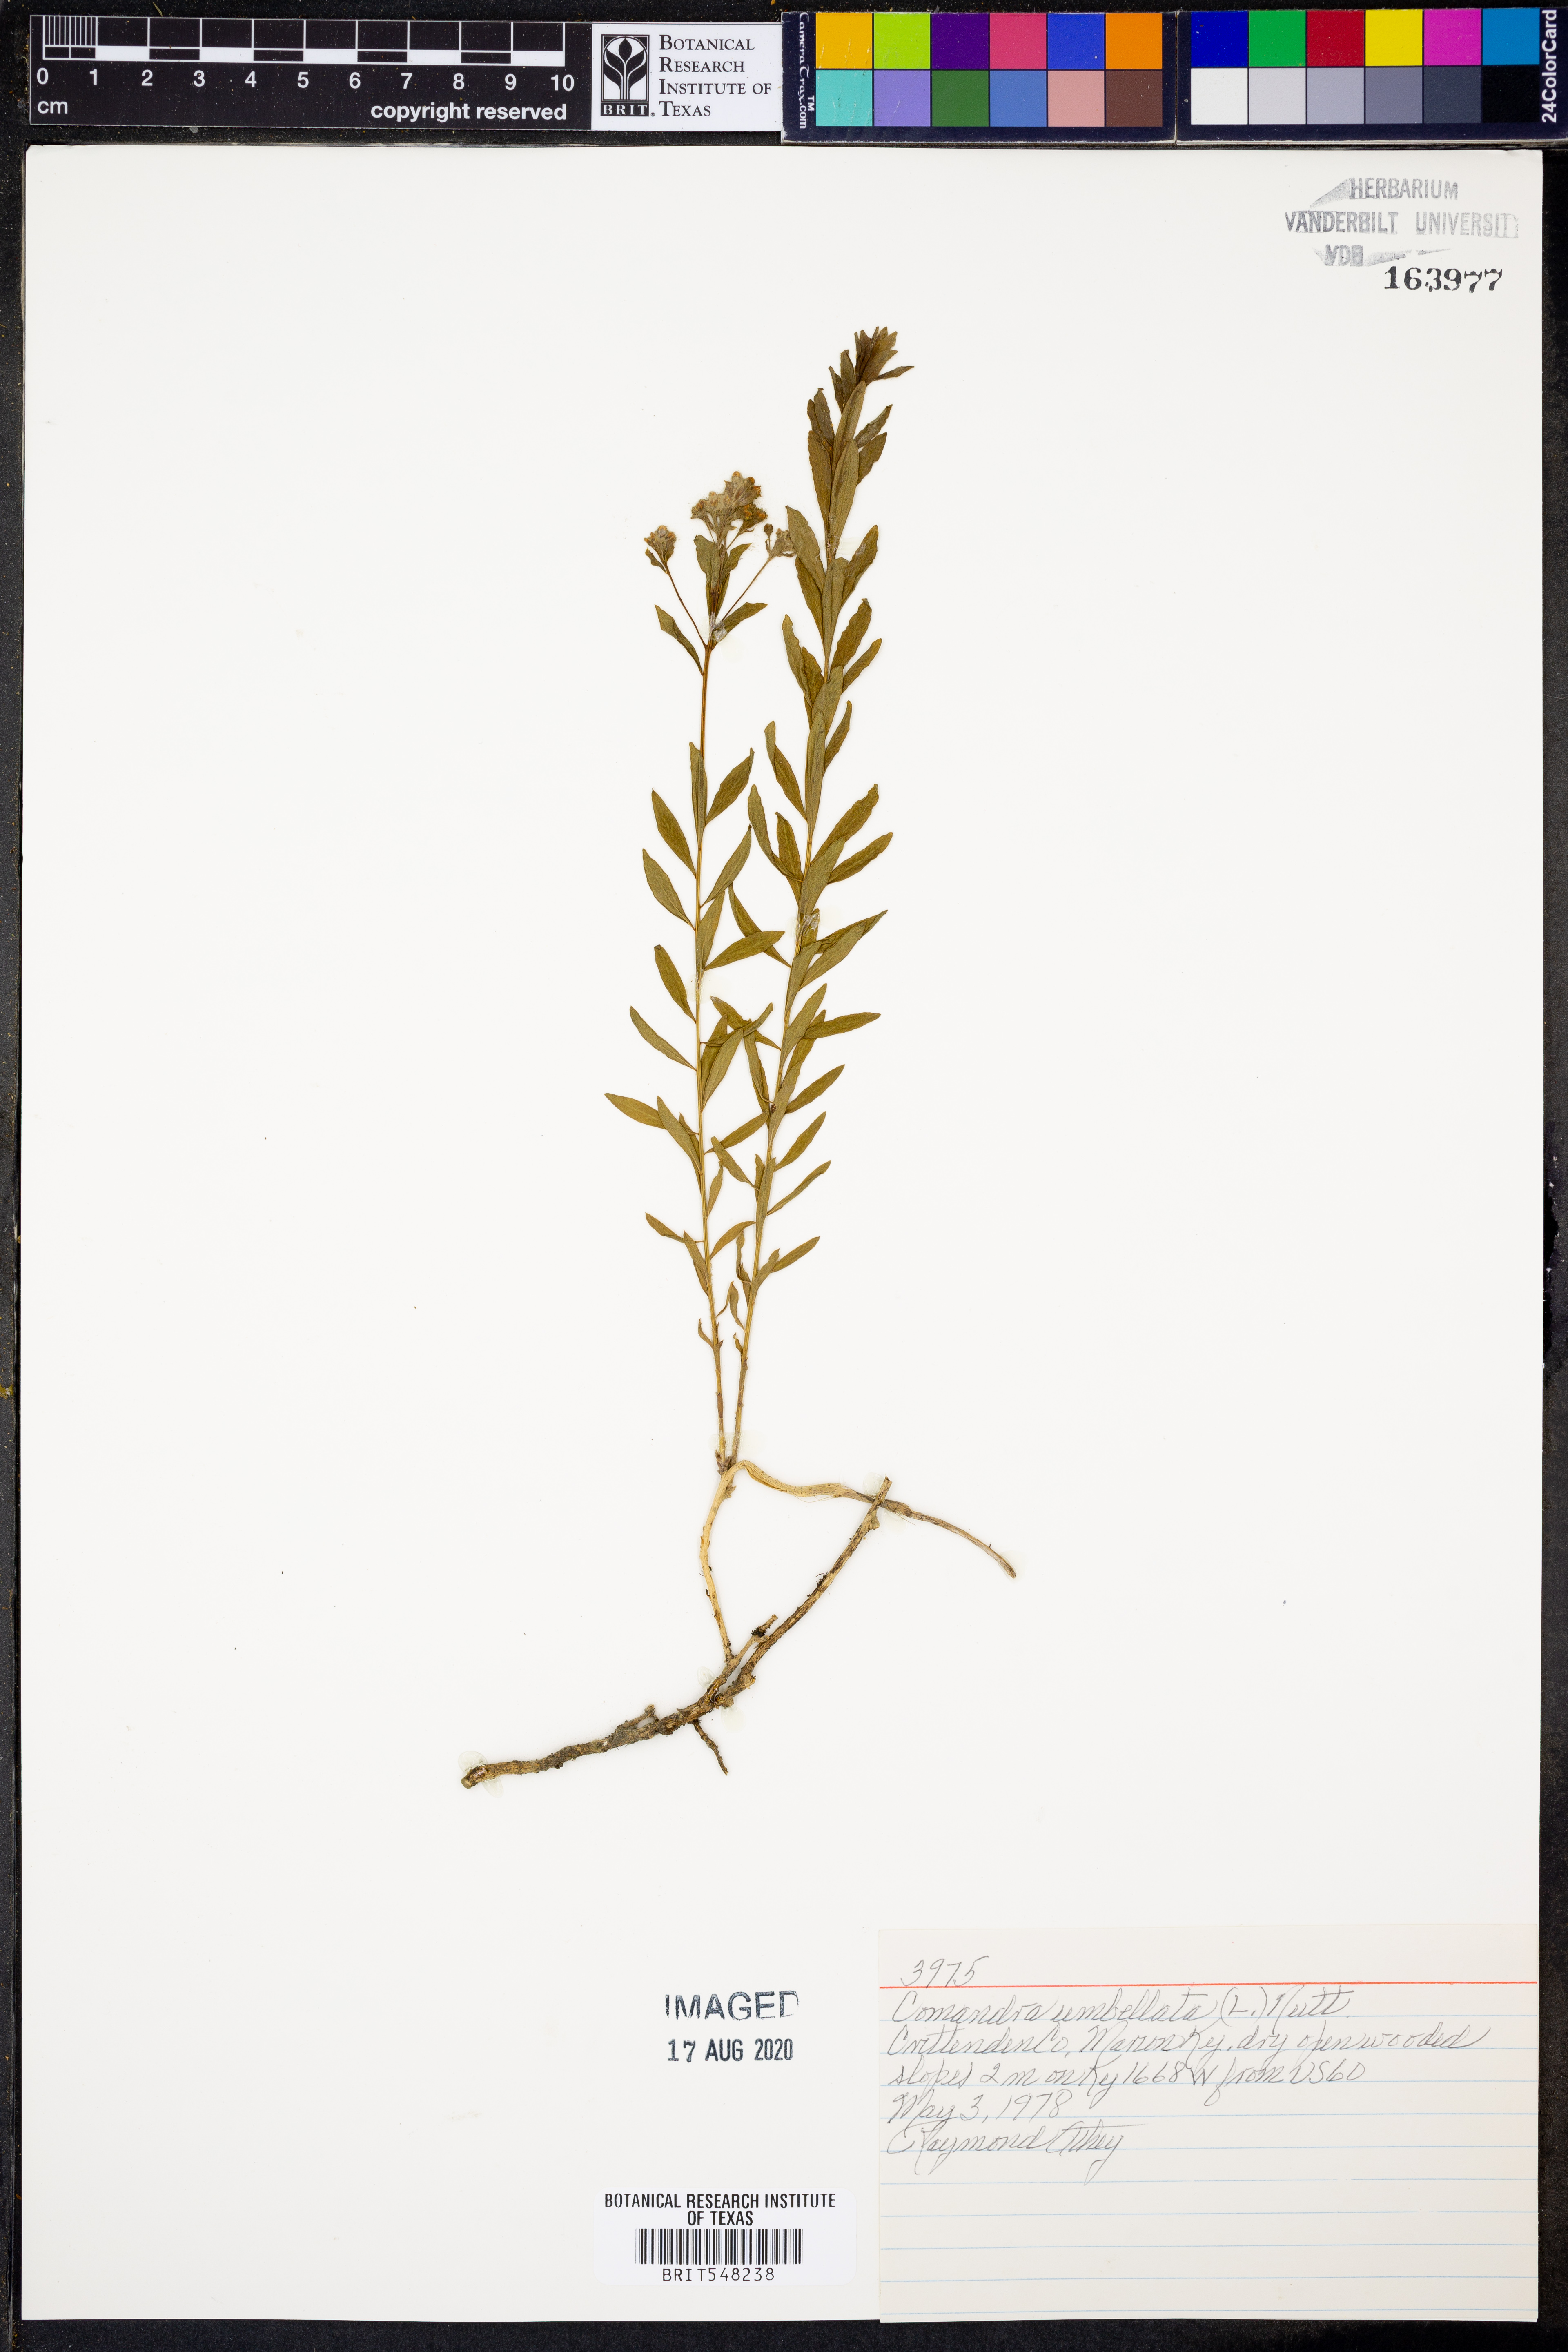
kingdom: Plantae
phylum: Tracheophyta
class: Magnoliopsida
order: Santalales
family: Comandraceae
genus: Comandra
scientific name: Comandra umbellata
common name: Bastard toadflax
